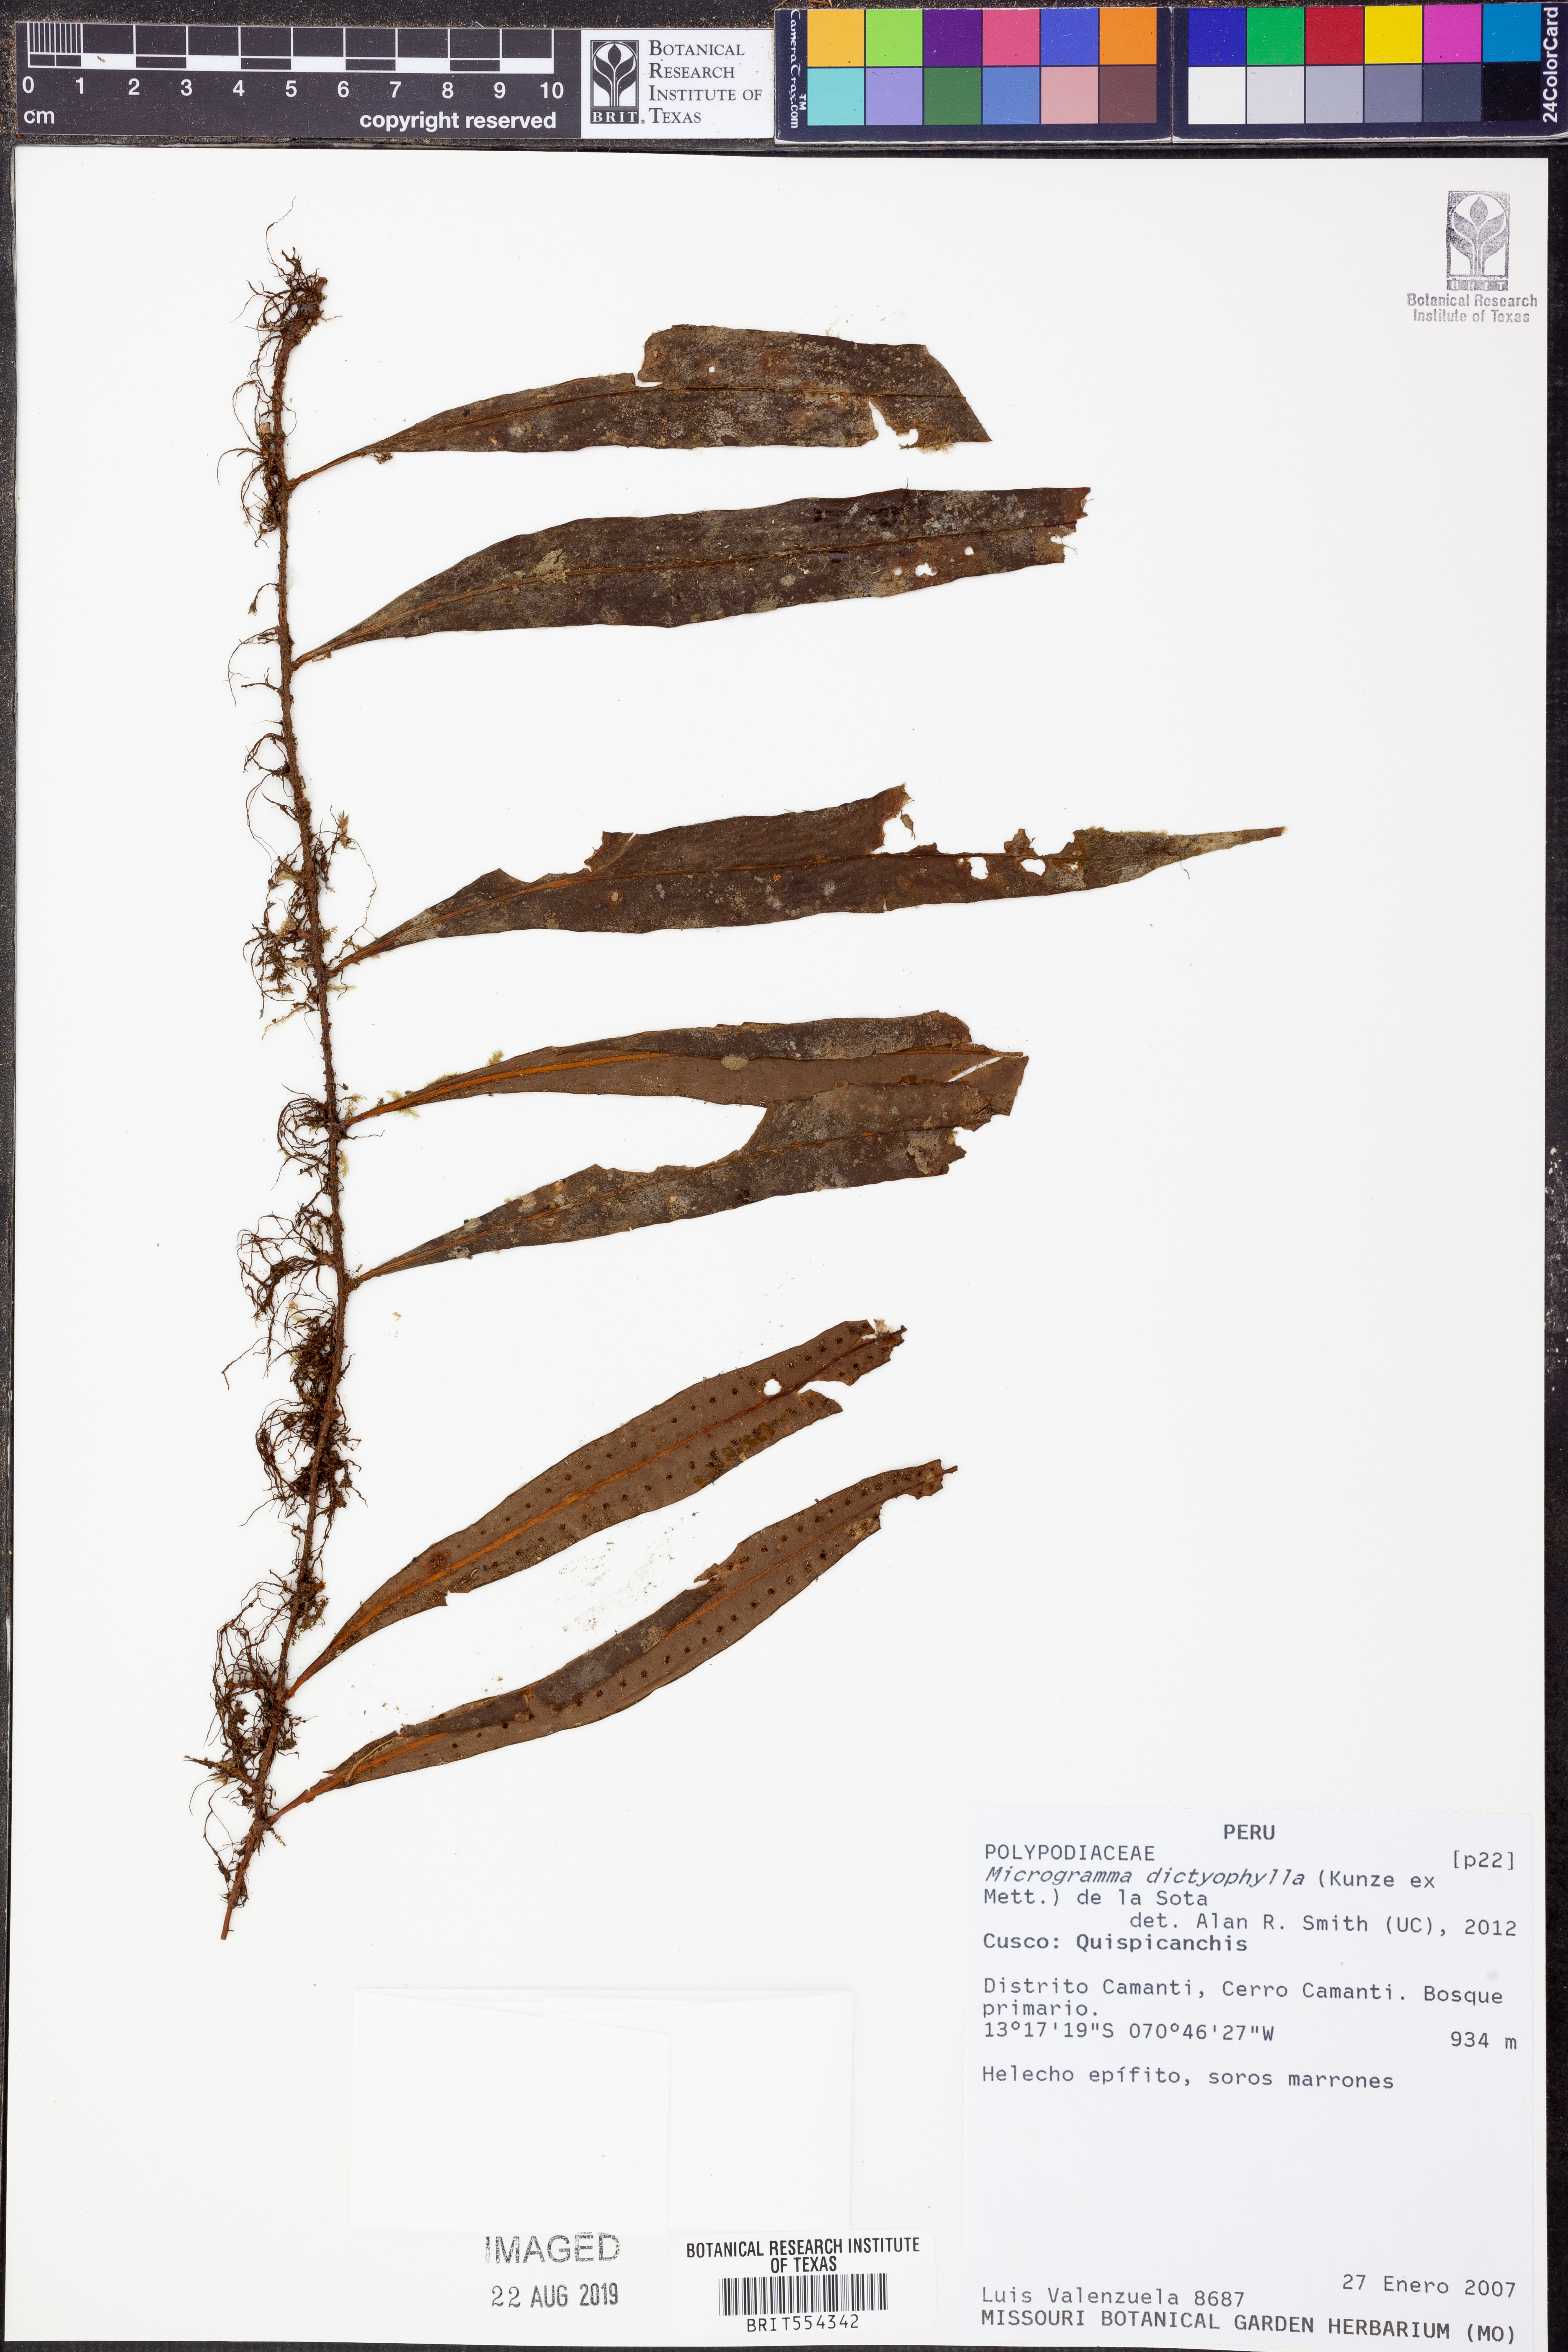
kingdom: Plantae
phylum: Tracheophyta
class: Polypodiopsida
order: Polypodiales
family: Polypodiaceae
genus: Microgramma
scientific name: Microgramma dictyophylla
